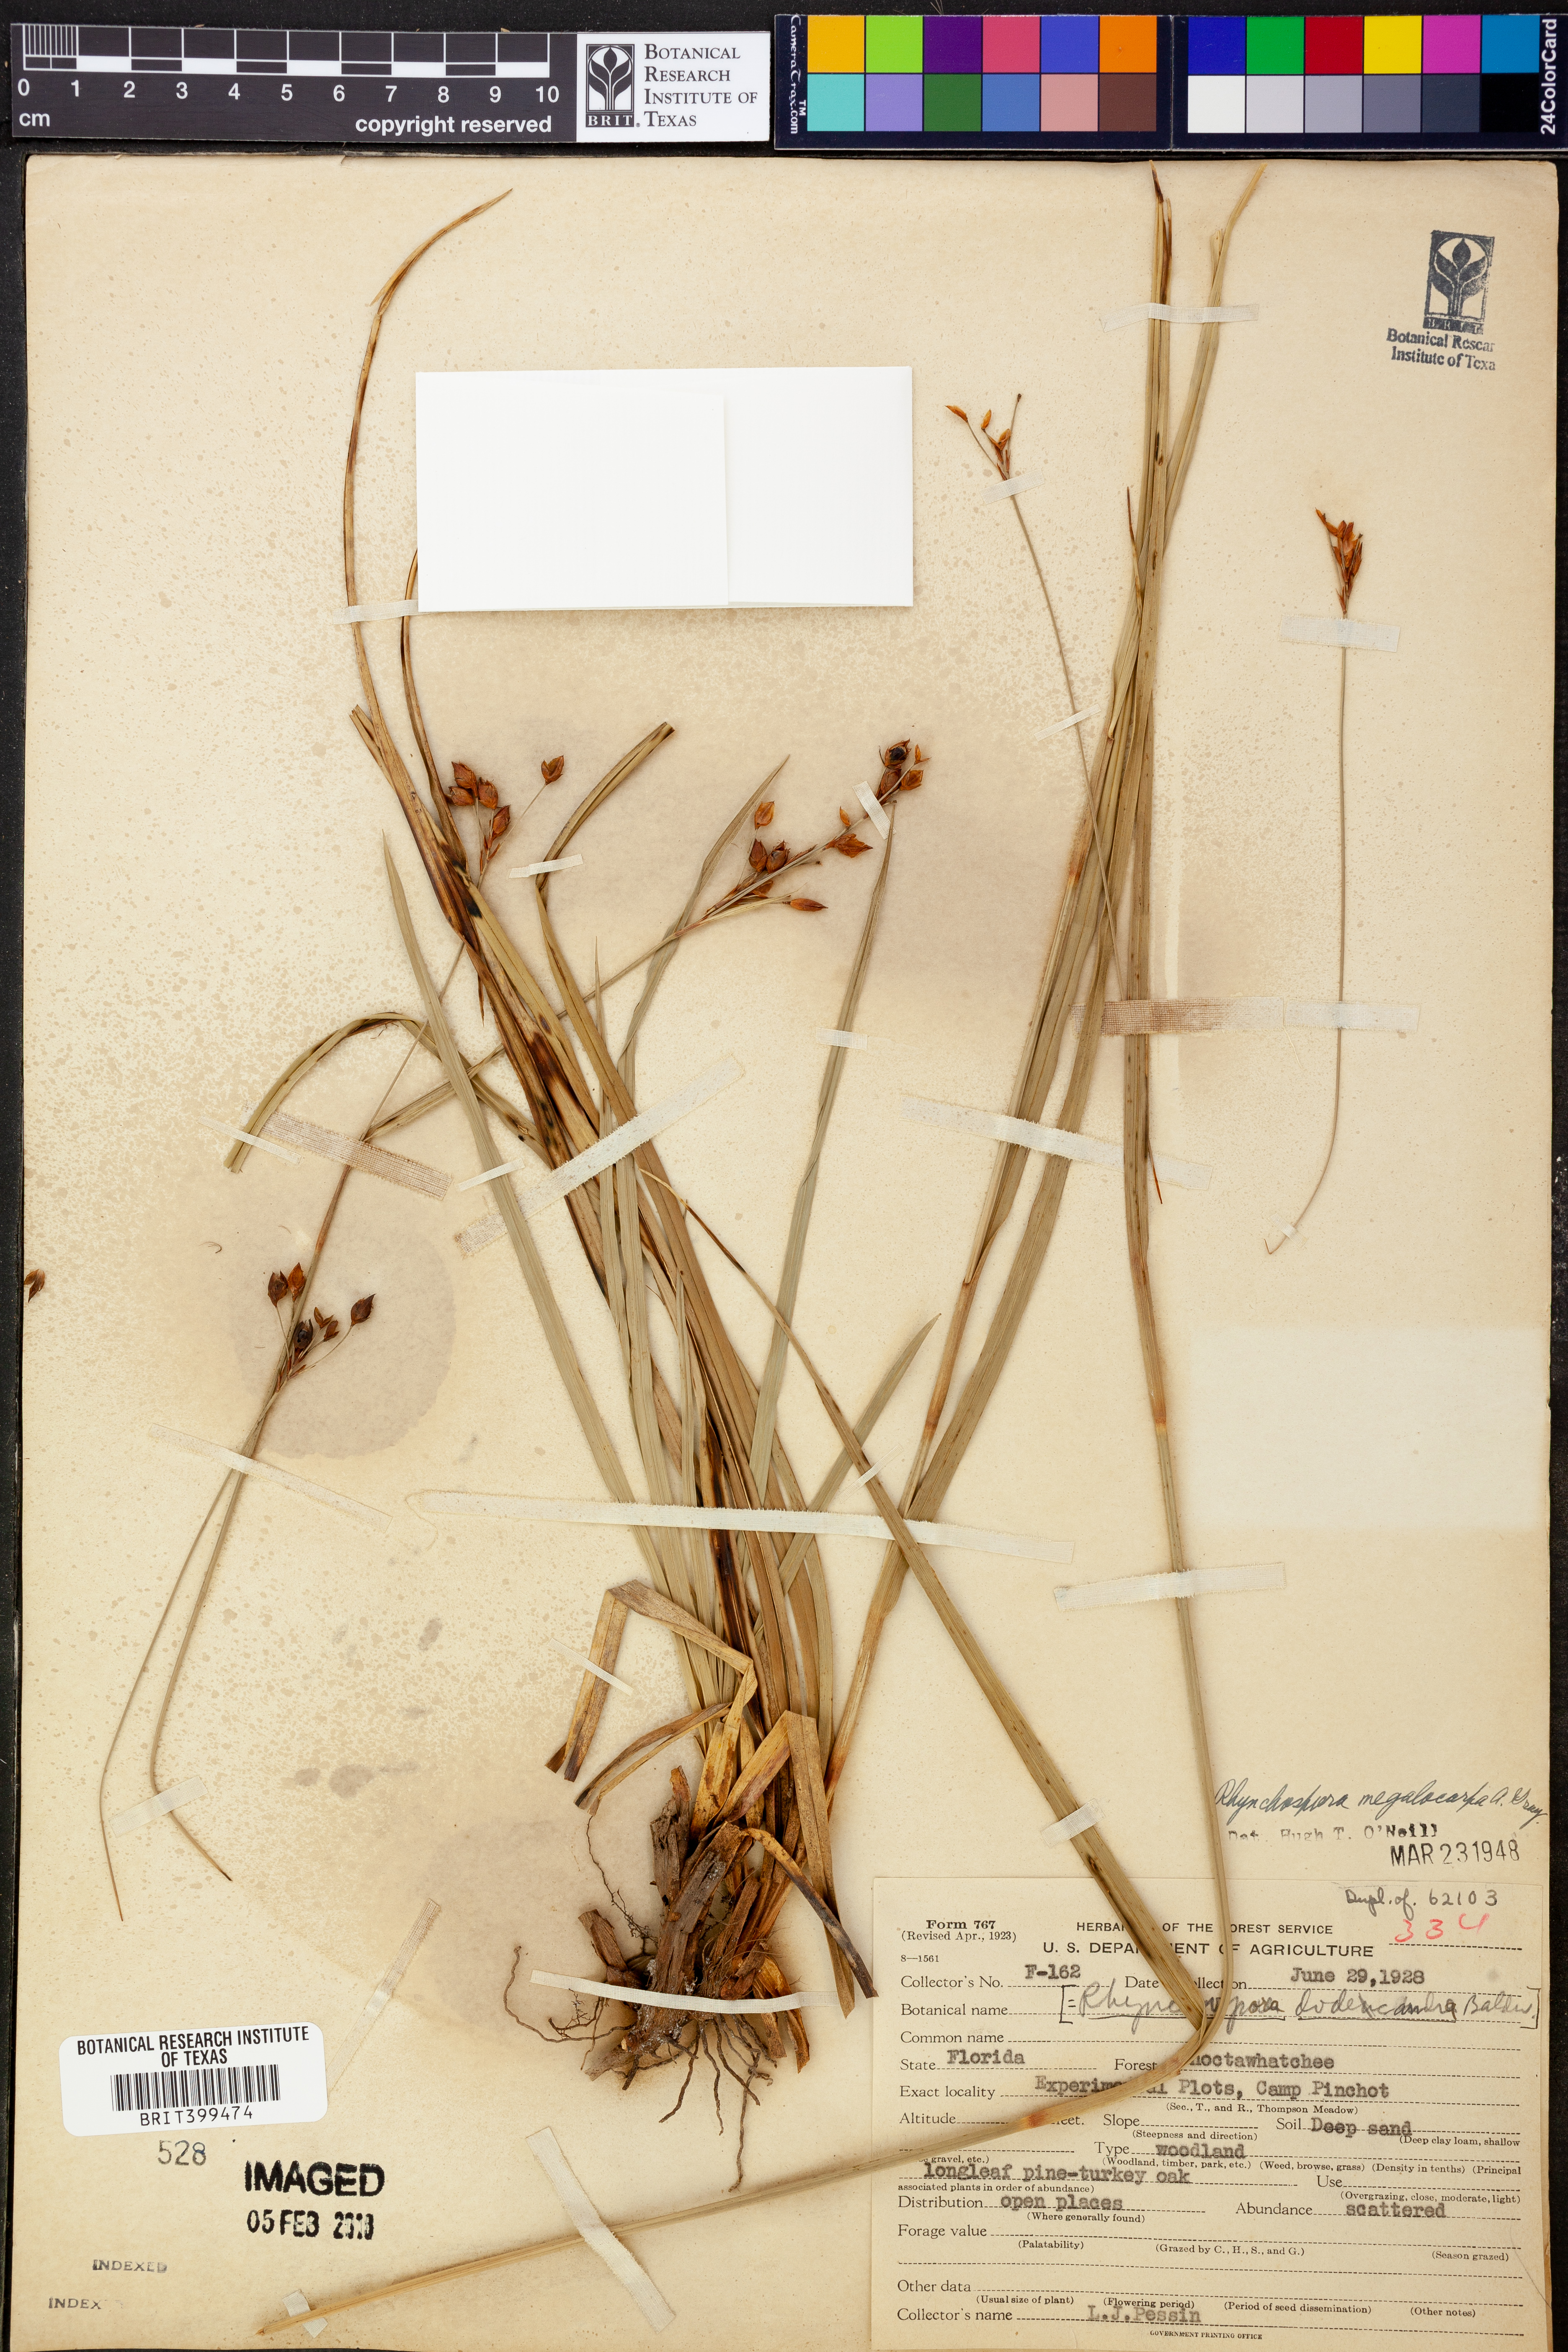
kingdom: Plantae
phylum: Tracheophyta
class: Liliopsida
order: Poales
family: Cyperaceae
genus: Rhynchospora
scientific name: Rhynchospora megalocarpa
